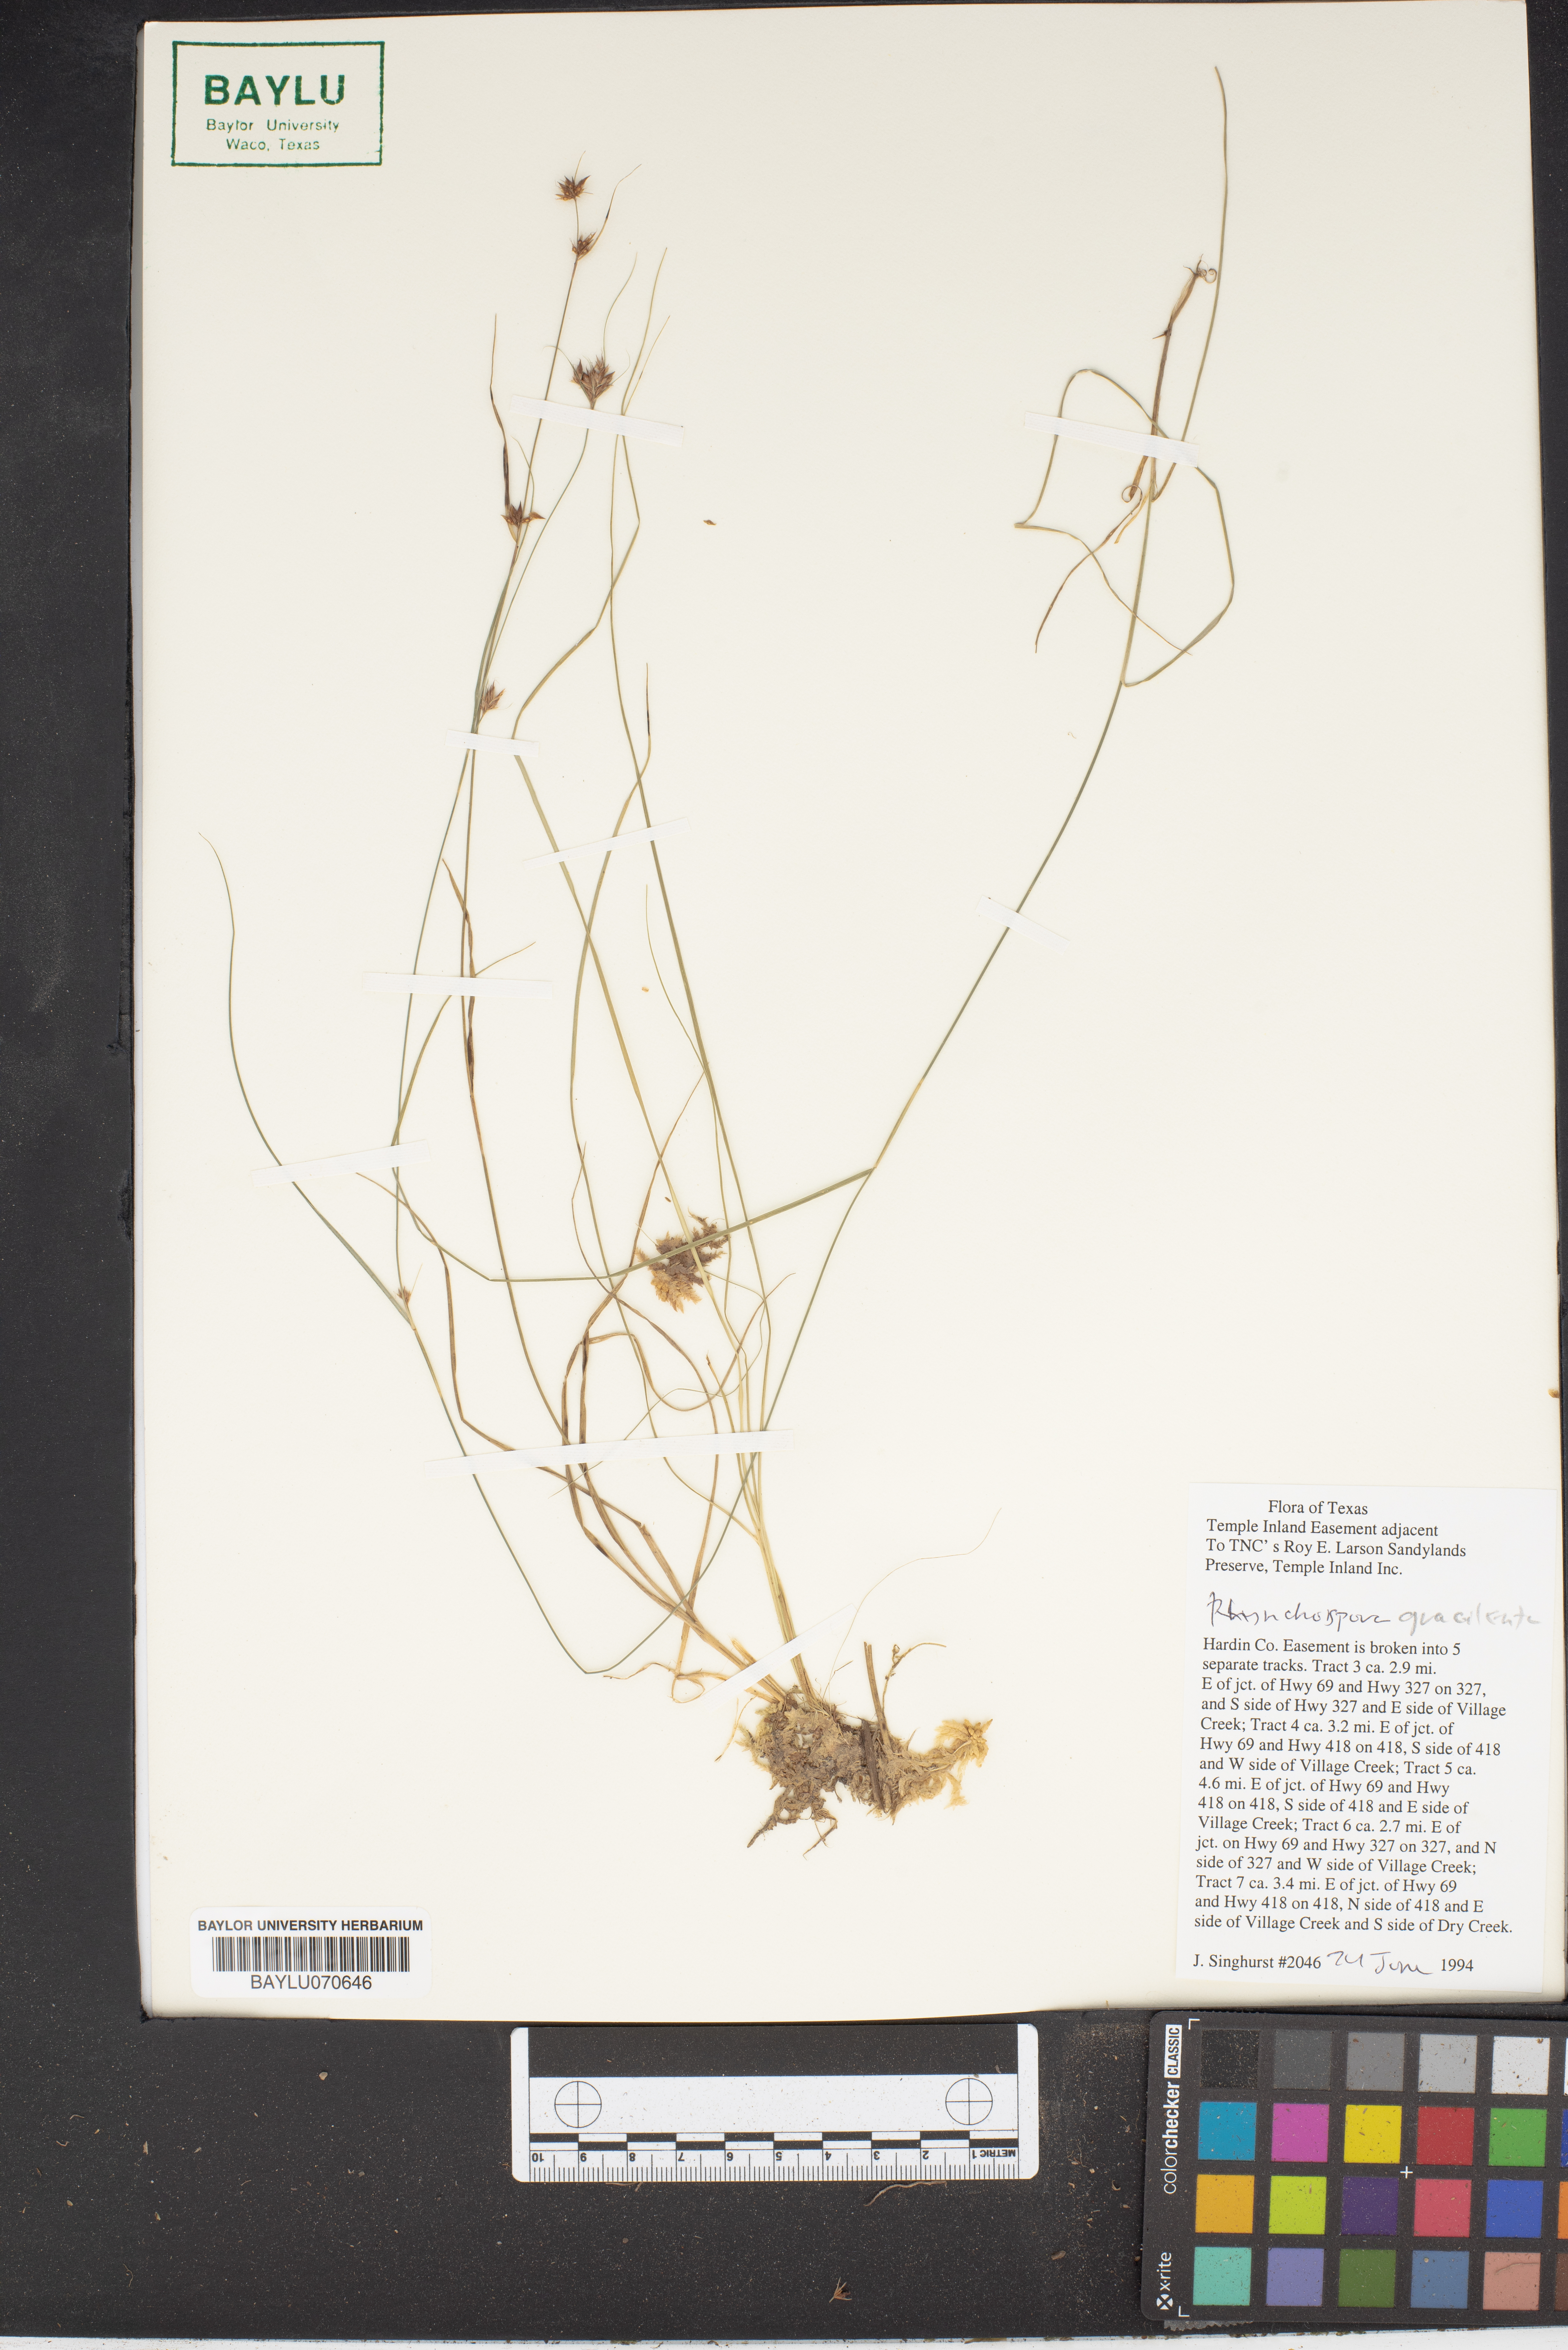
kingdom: Plantae
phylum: Tracheophyta
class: Liliopsida
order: Poales
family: Cyperaceae
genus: Rhynchospora
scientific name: Rhynchospora gracilenta
